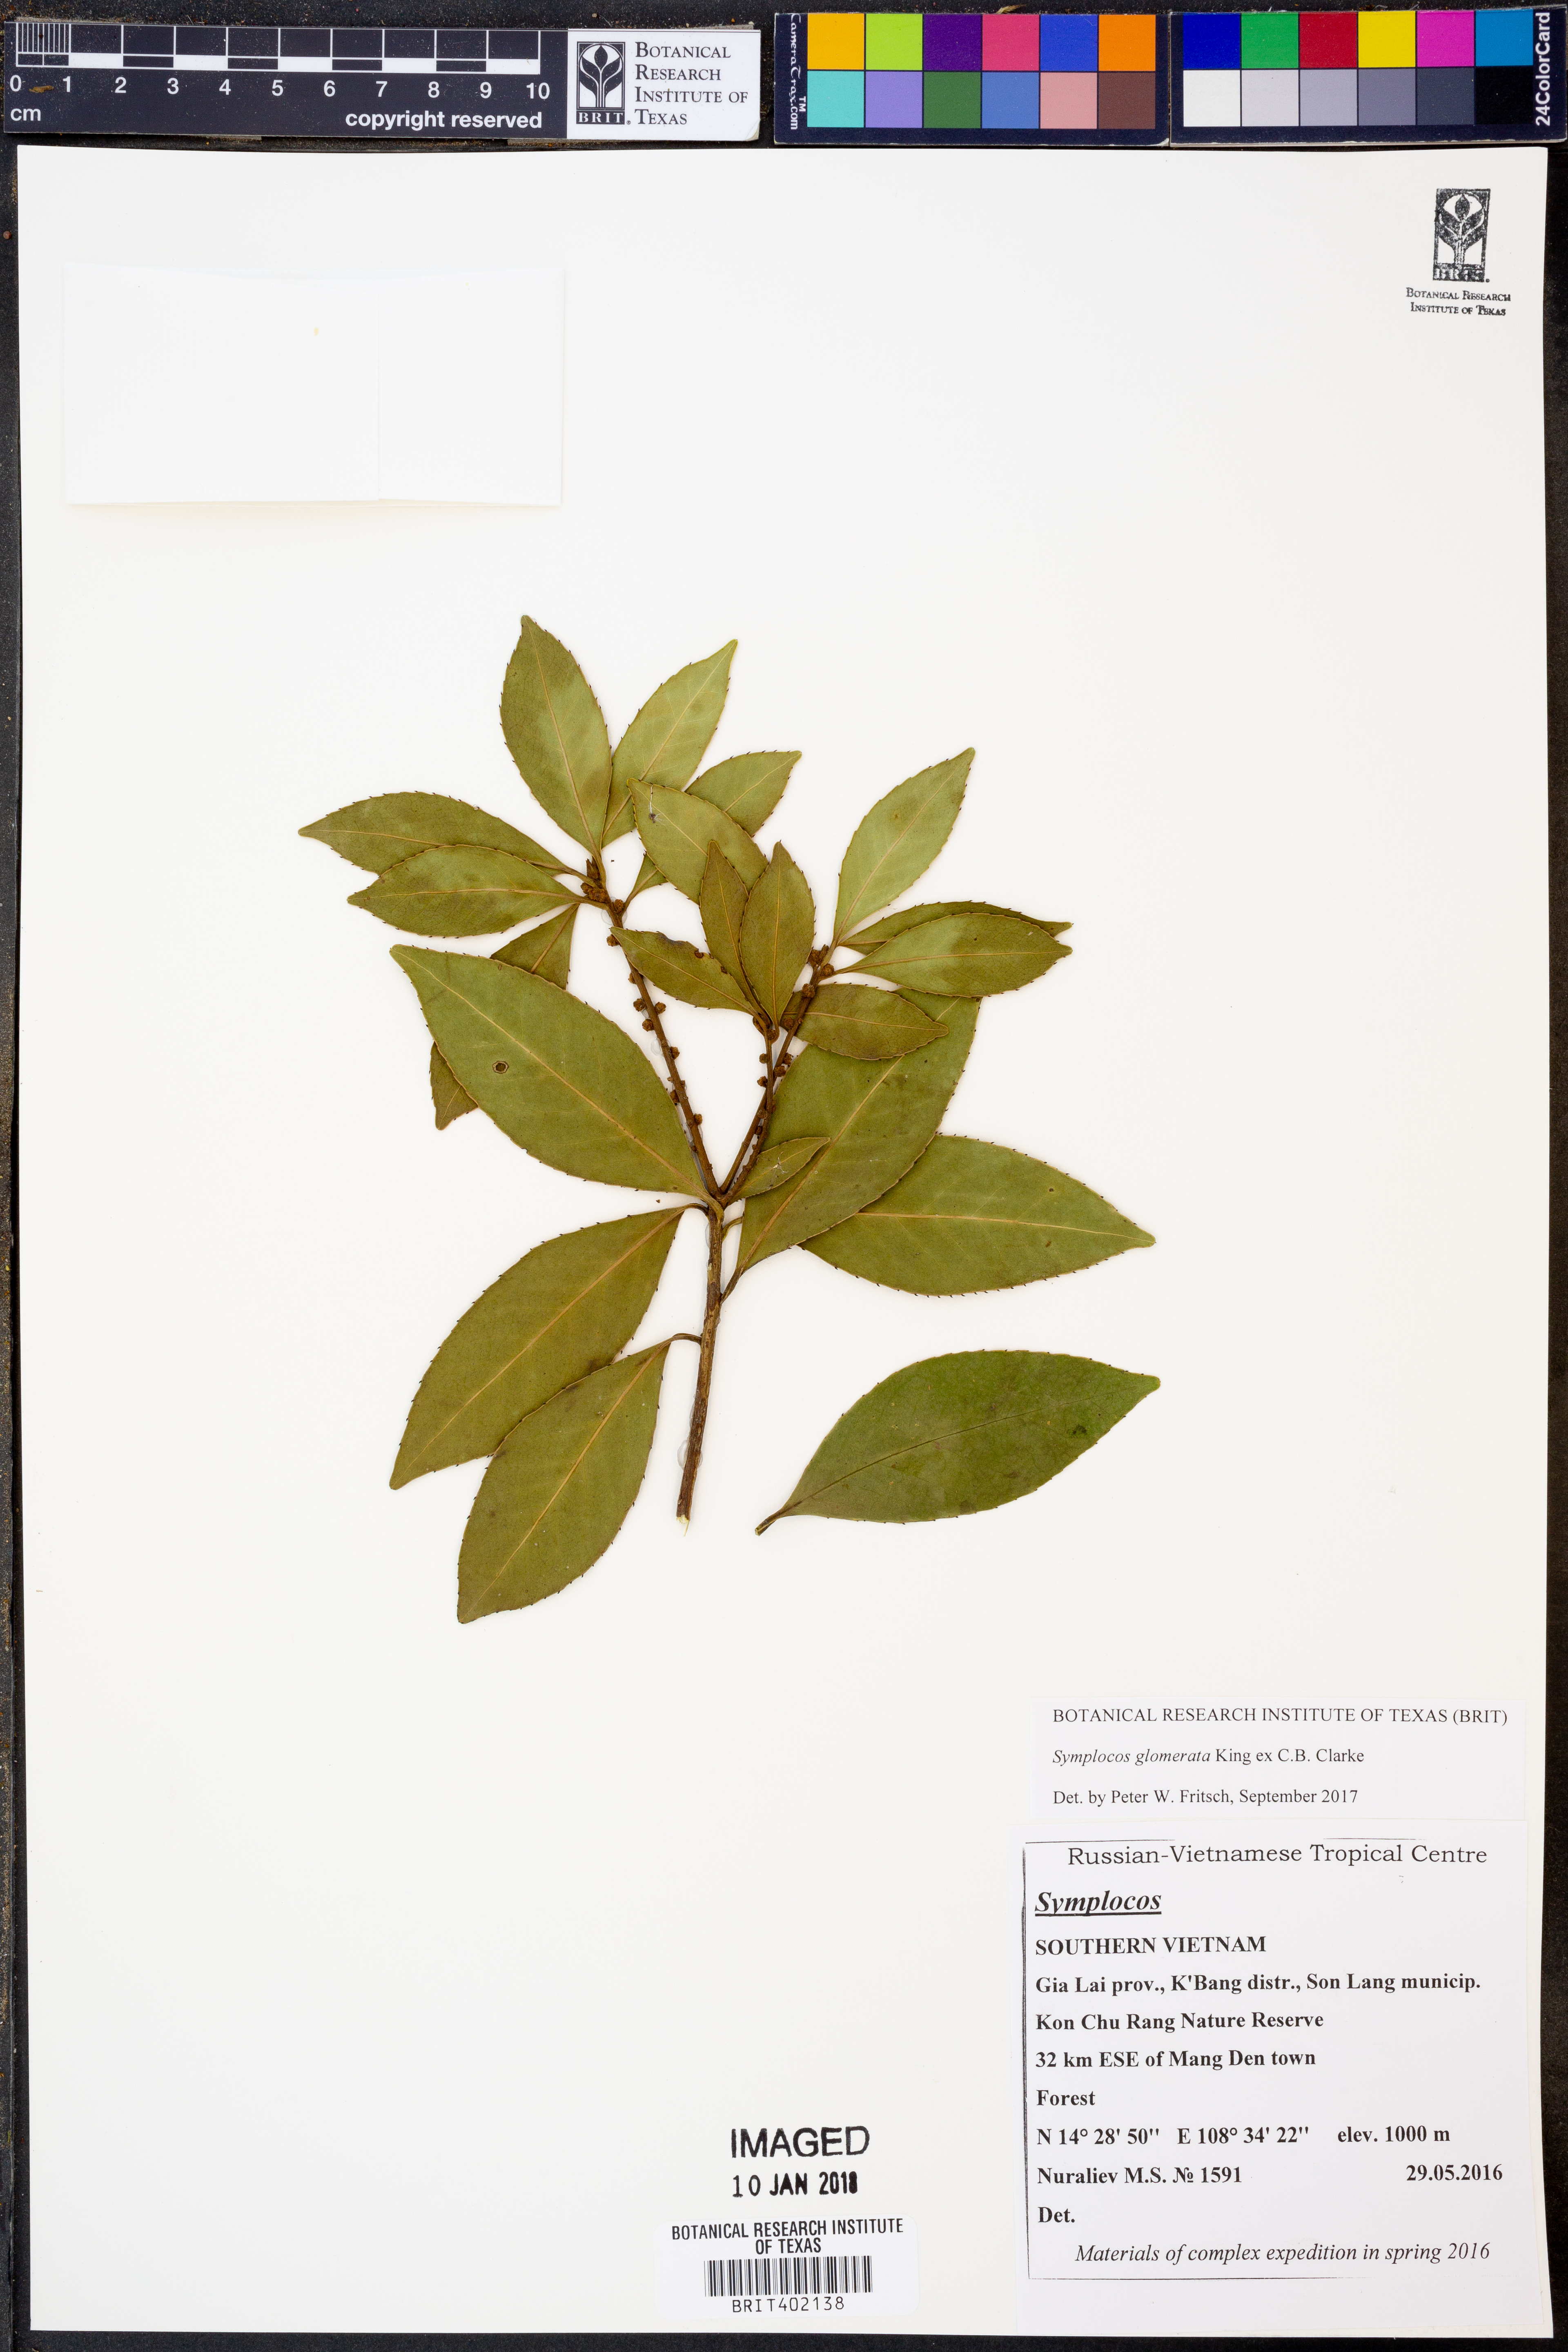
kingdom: Plantae
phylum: Tracheophyta
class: Magnoliopsida
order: Ericales
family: Symplocaceae
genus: Symplocos
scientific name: Symplocos glomerata
